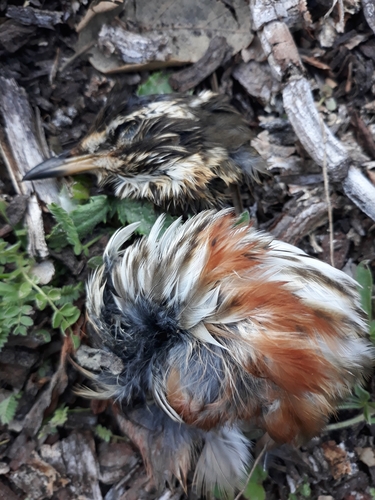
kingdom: Animalia
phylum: Chordata
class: Aves
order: Passeriformes
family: Turdidae
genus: Turdus
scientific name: Turdus iliacus
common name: Redwing
